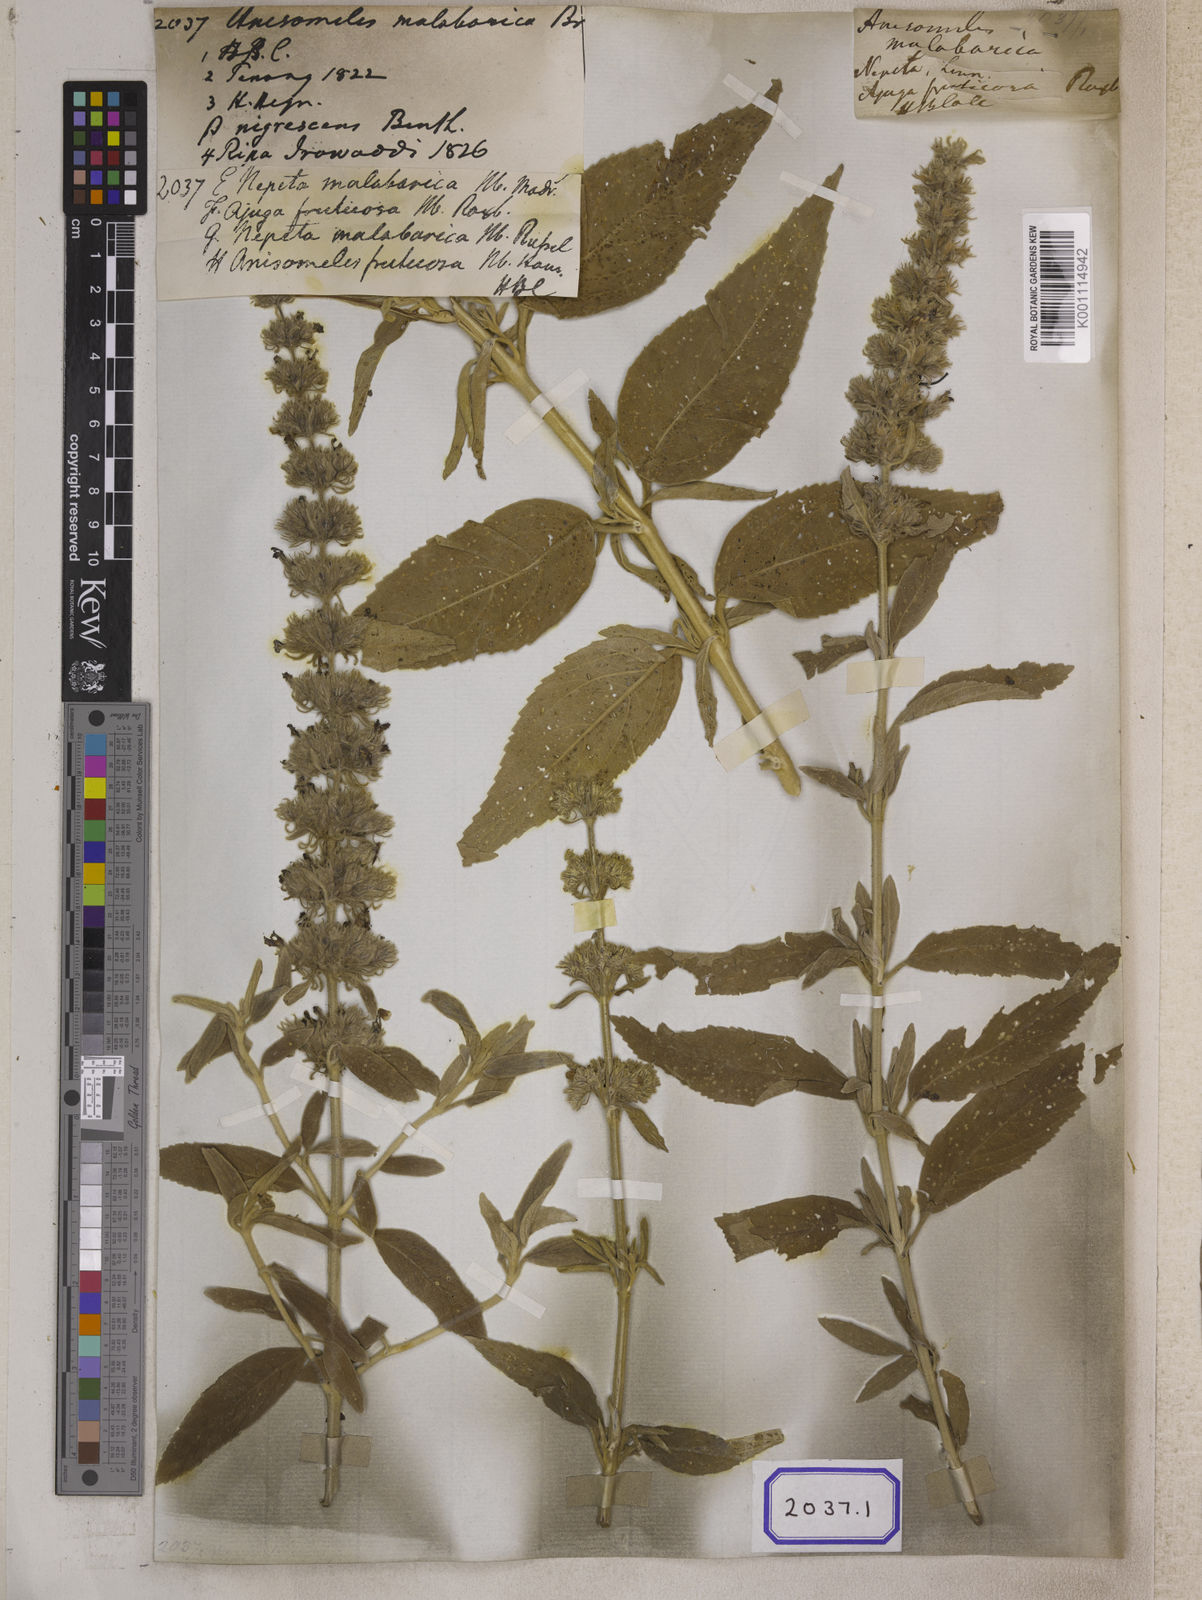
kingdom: Plantae
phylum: Tracheophyta
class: Magnoliopsida
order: Lamiales
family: Lamiaceae
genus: Anisomeles
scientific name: Anisomeles malabarica
